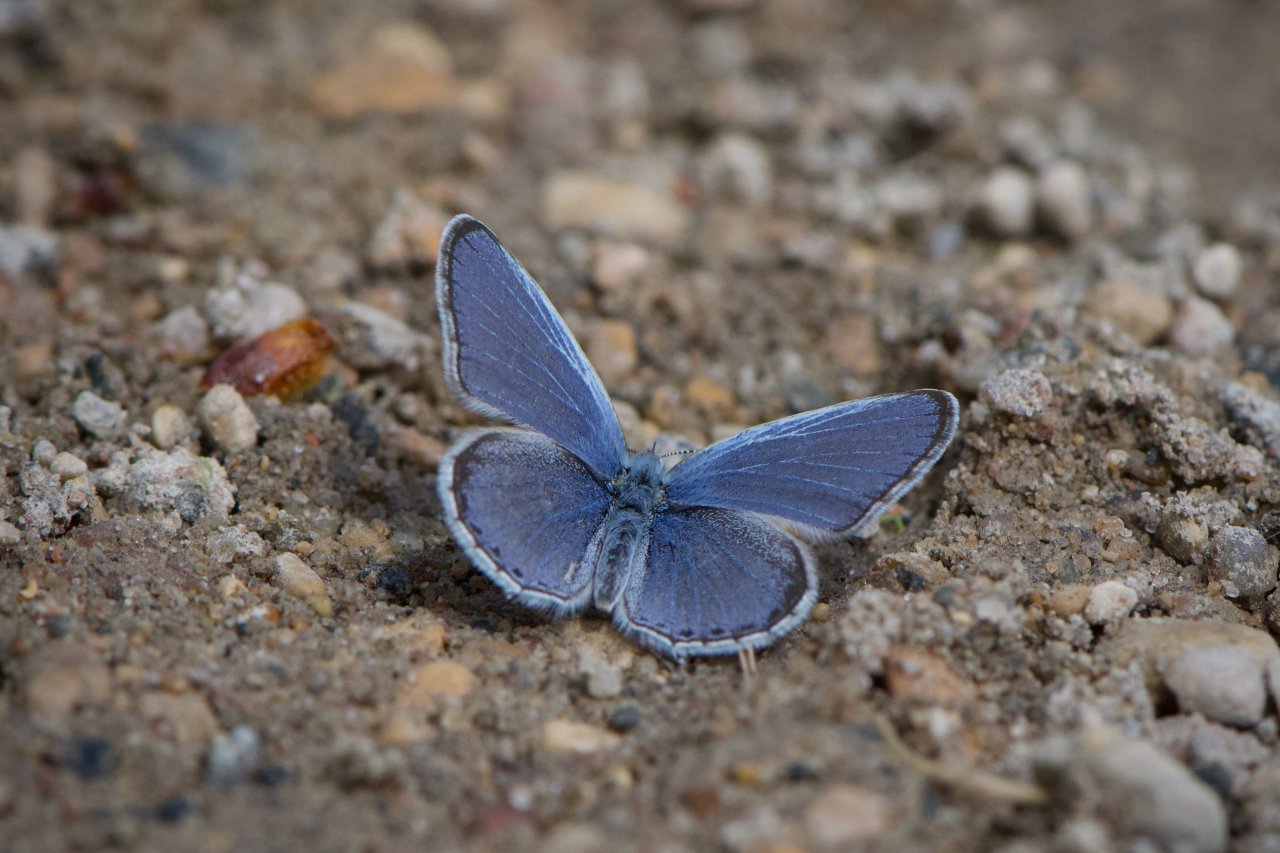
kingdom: Animalia
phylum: Arthropoda
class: Insecta
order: Lepidoptera
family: Lycaenidae
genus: Elkalyce
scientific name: Elkalyce comyntas
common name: Eastern Tailed-Blue
